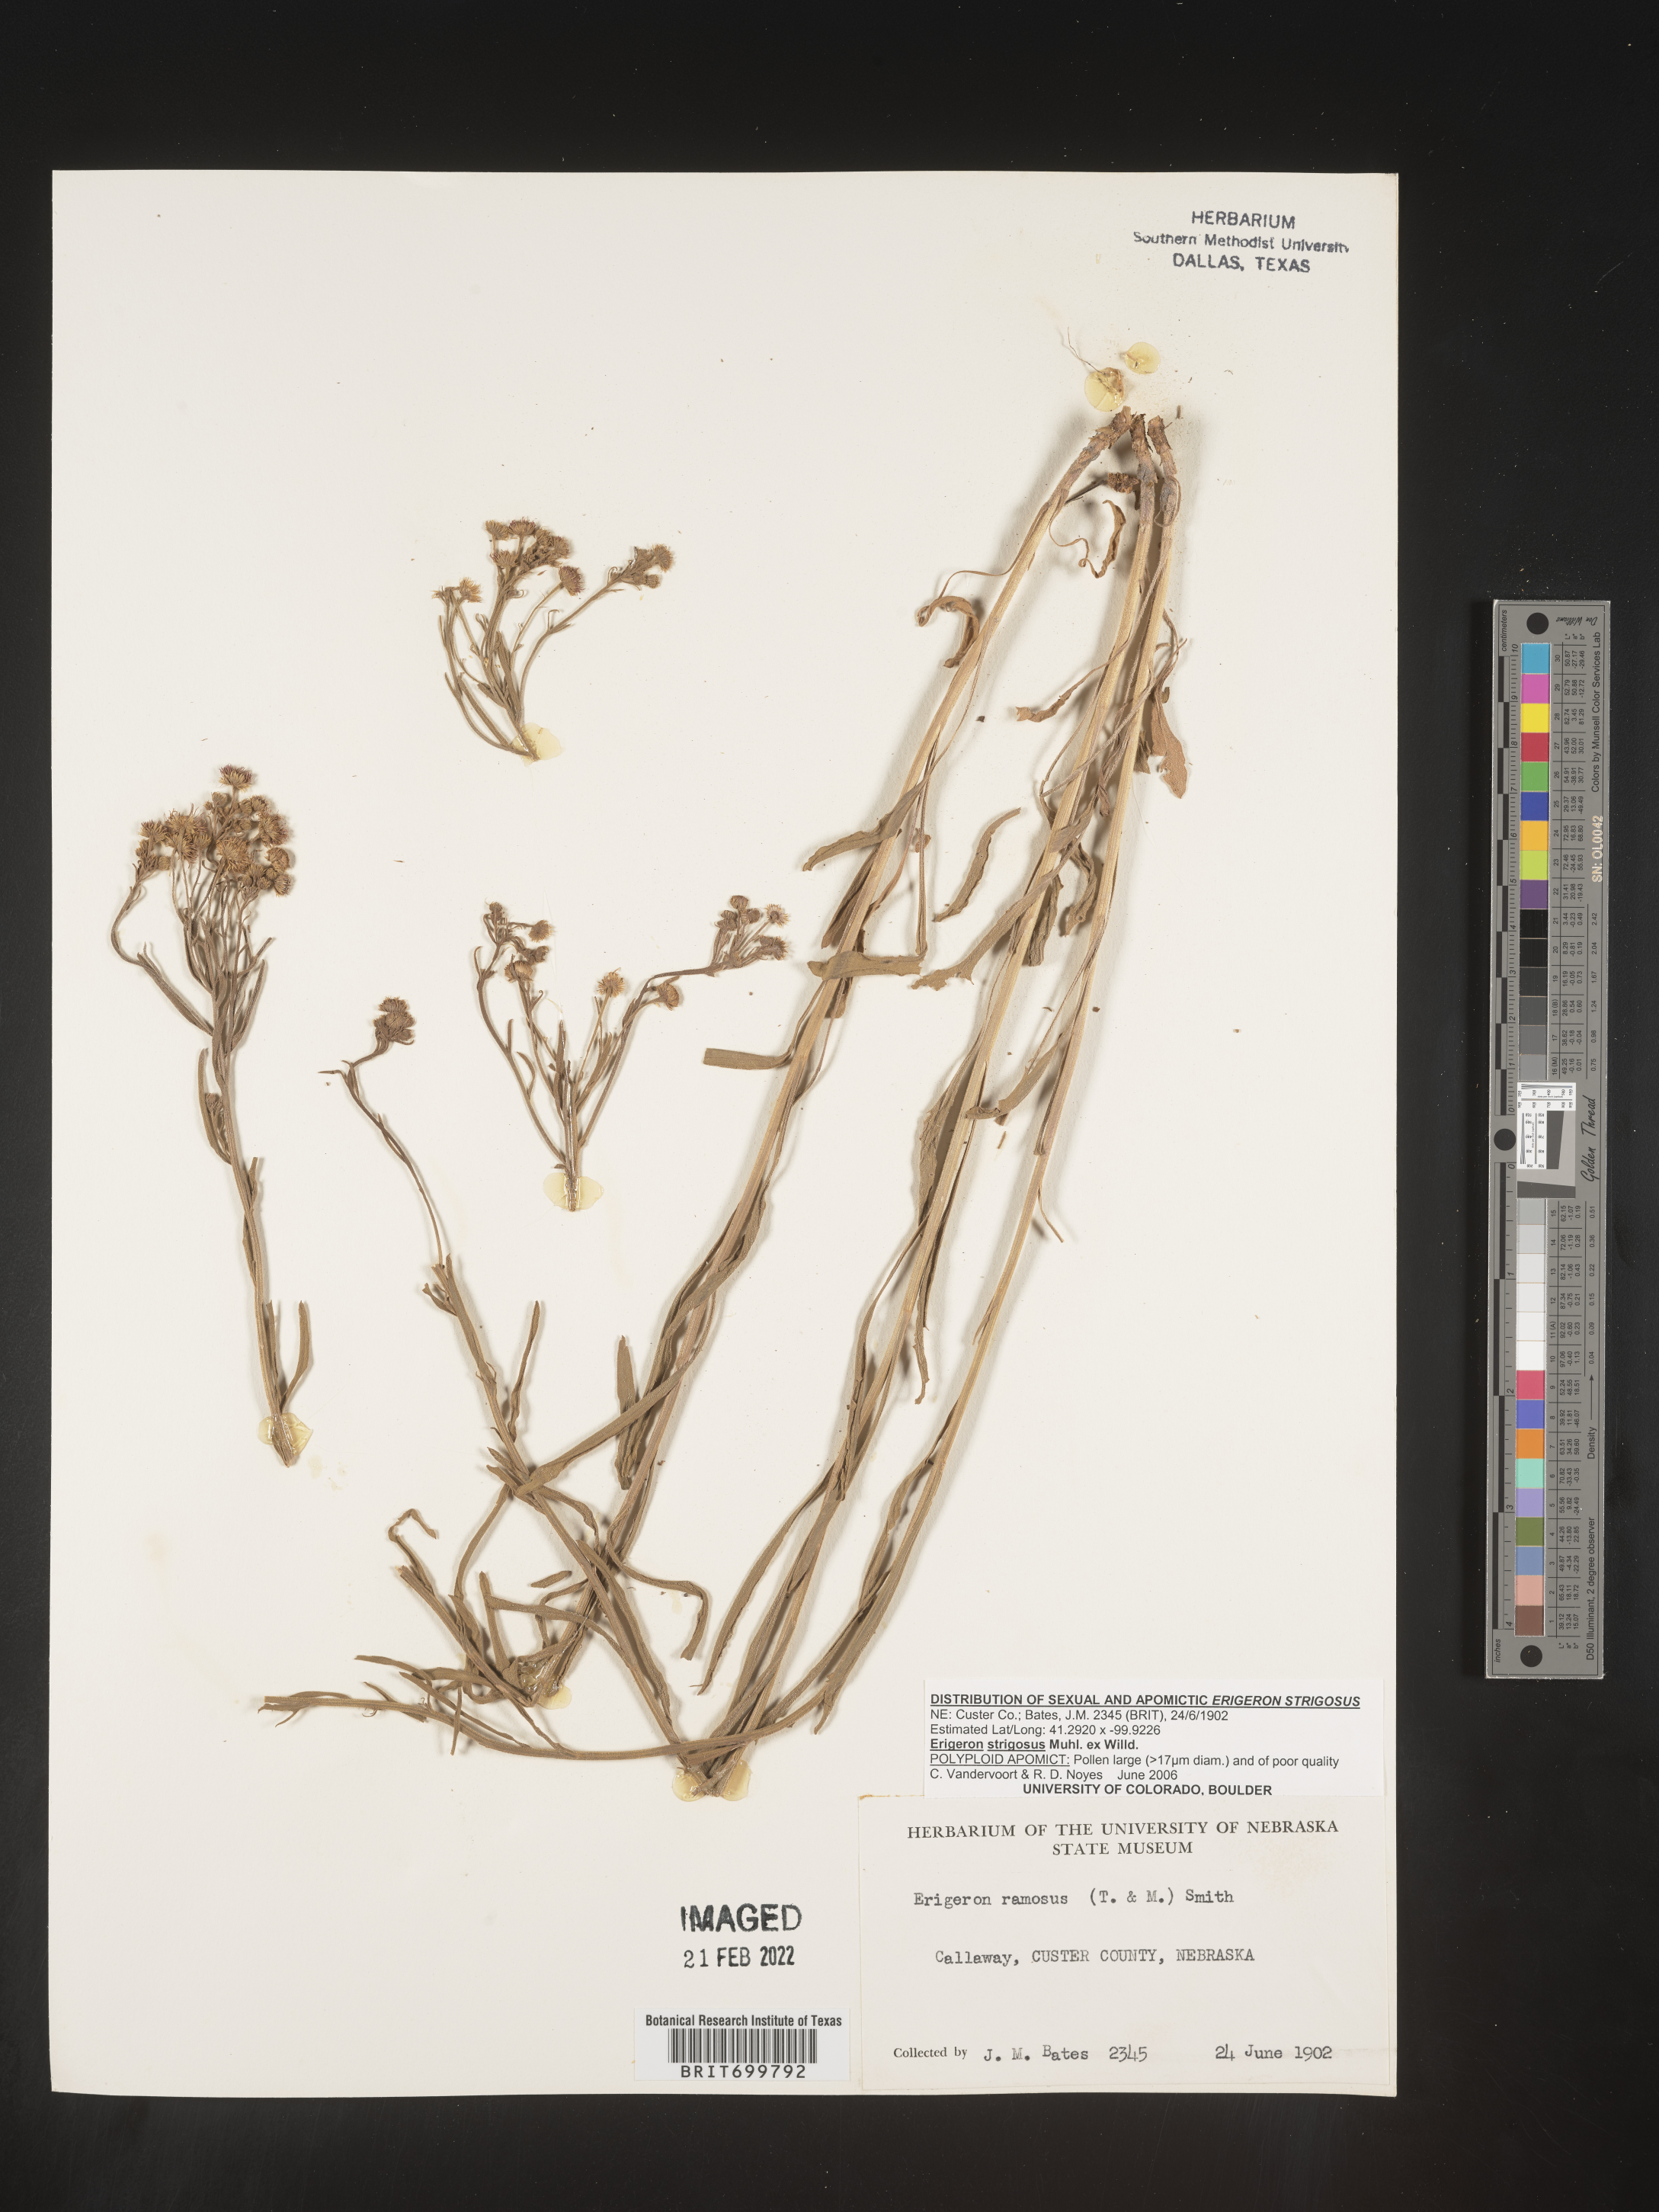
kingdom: Plantae
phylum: Tracheophyta
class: Magnoliopsida
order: Asterales
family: Asteraceae
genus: Erigeron
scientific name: Erigeron strigosus
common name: Common eastern fleabane
